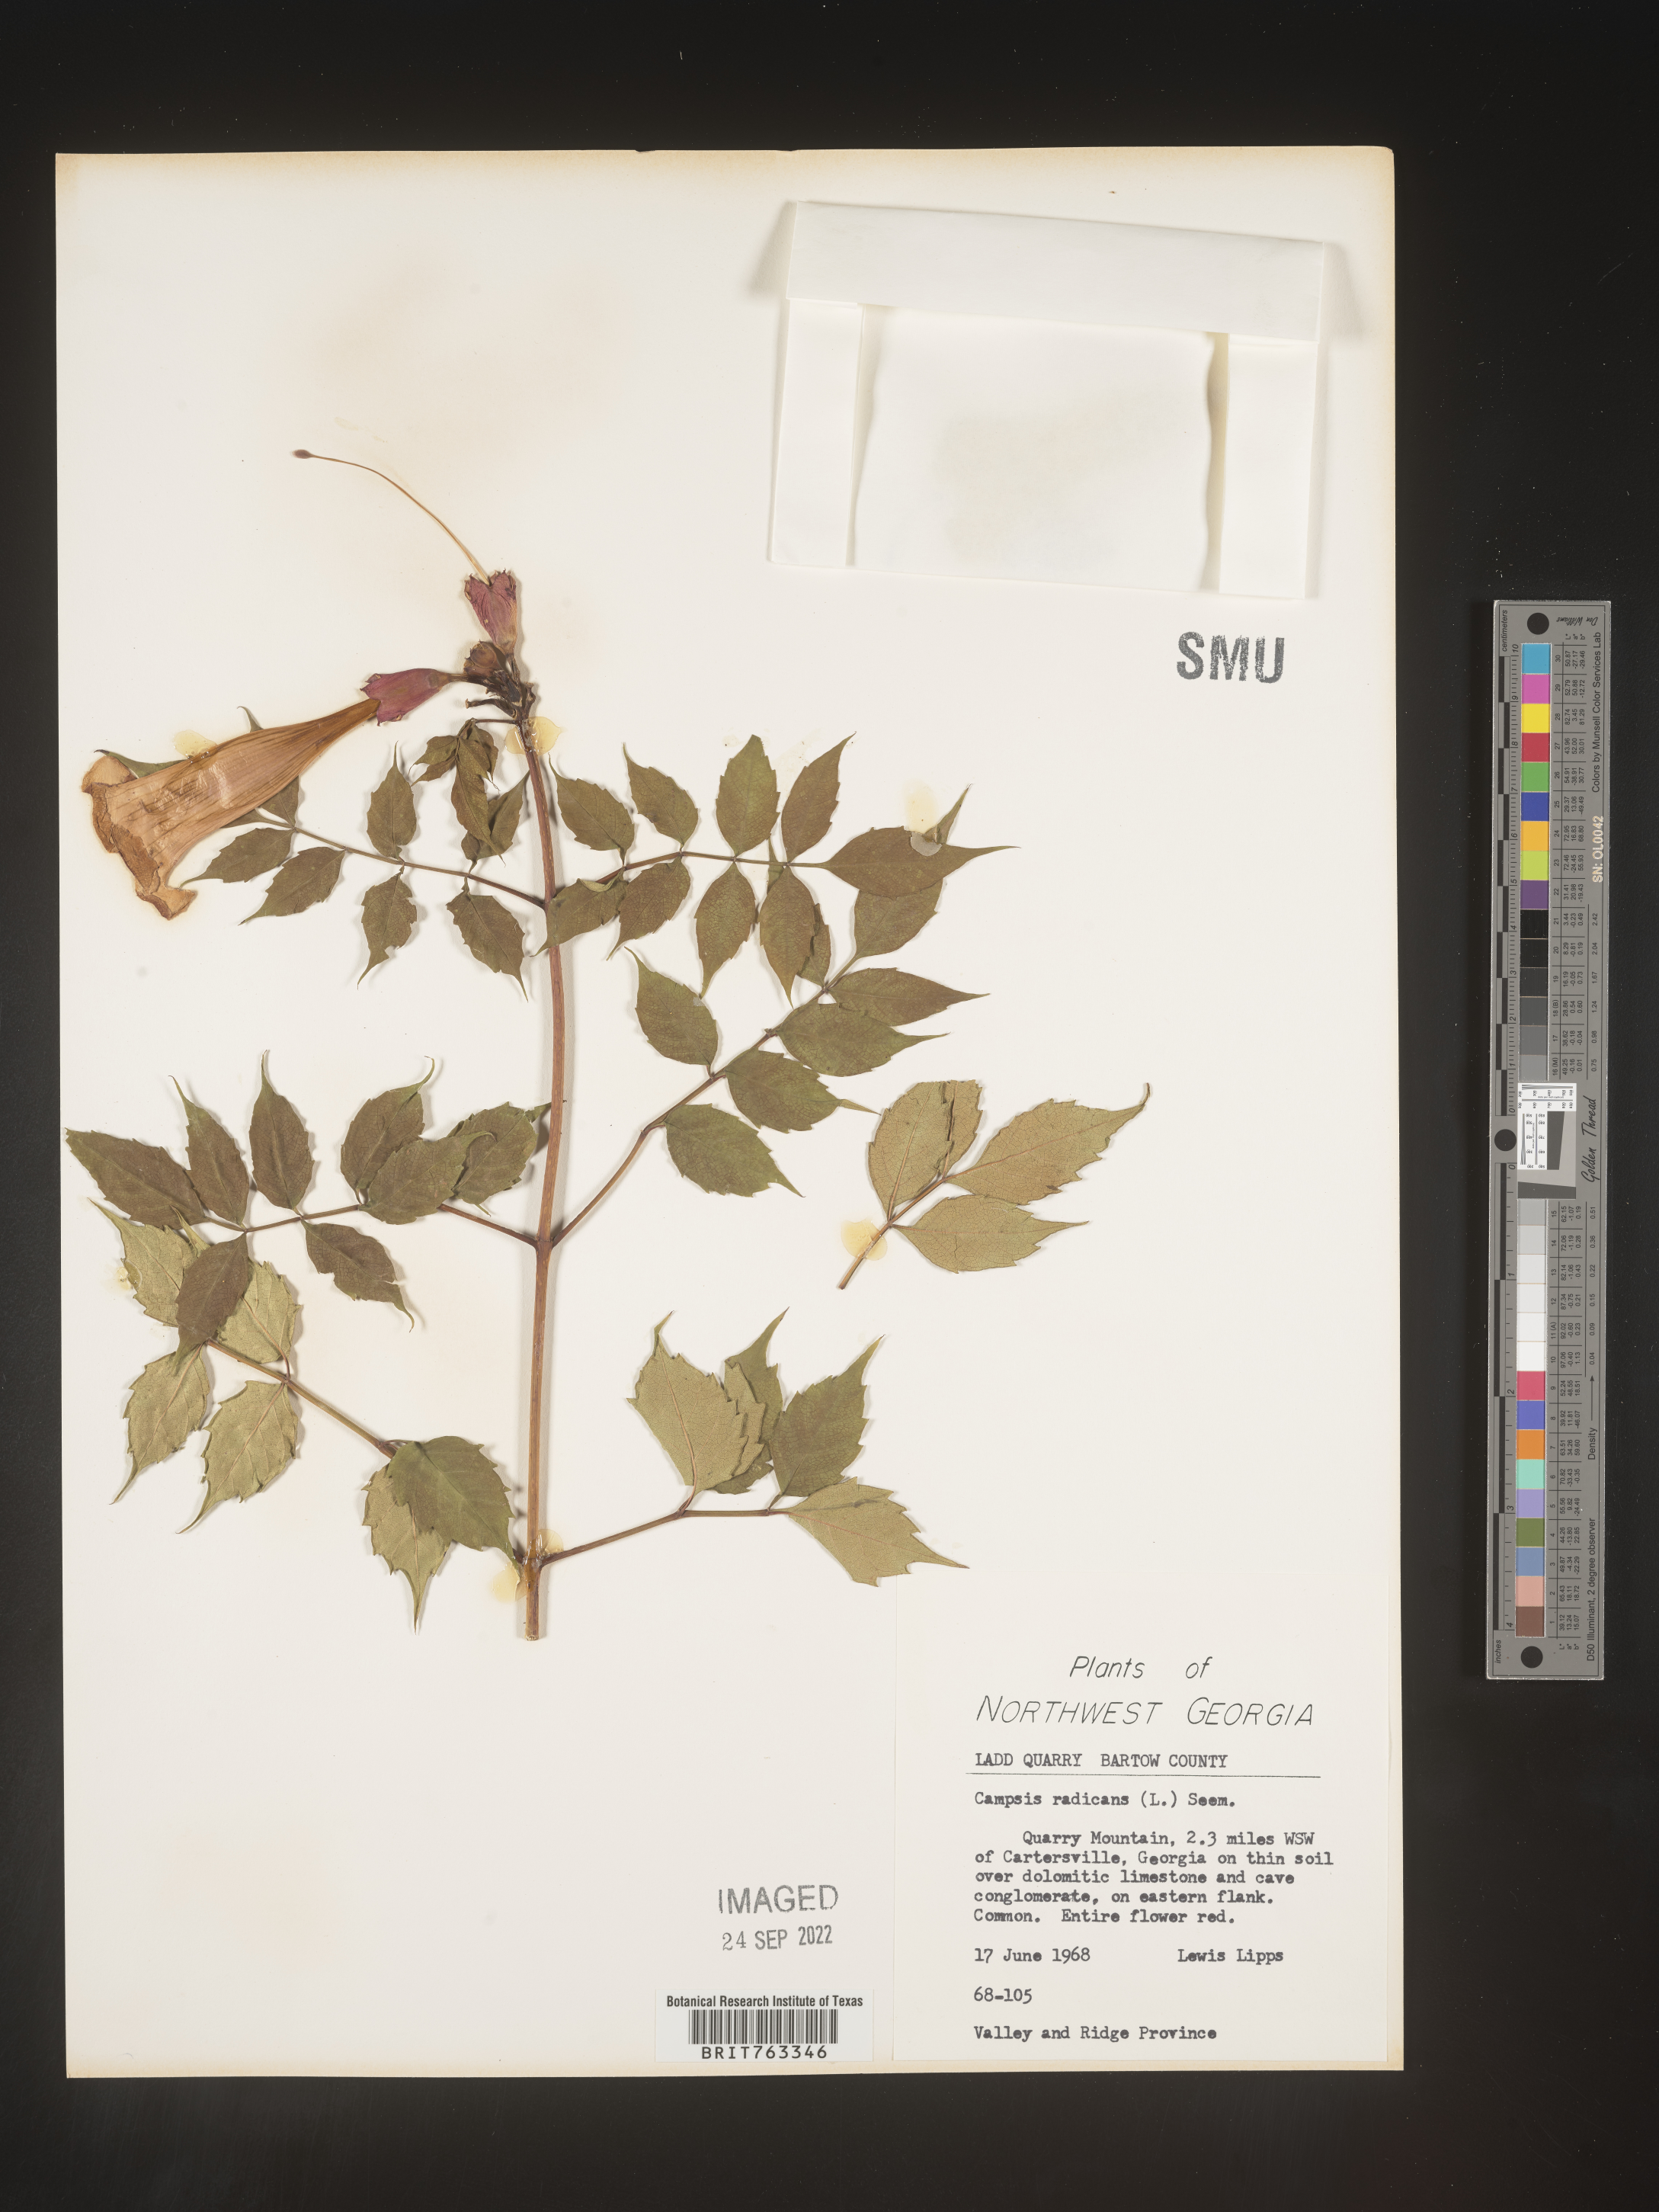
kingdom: Plantae
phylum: Tracheophyta
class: Magnoliopsida
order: Lamiales
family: Bignoniaceae
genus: Campsis
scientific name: Campsis radicans
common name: Trumpet-creeper
